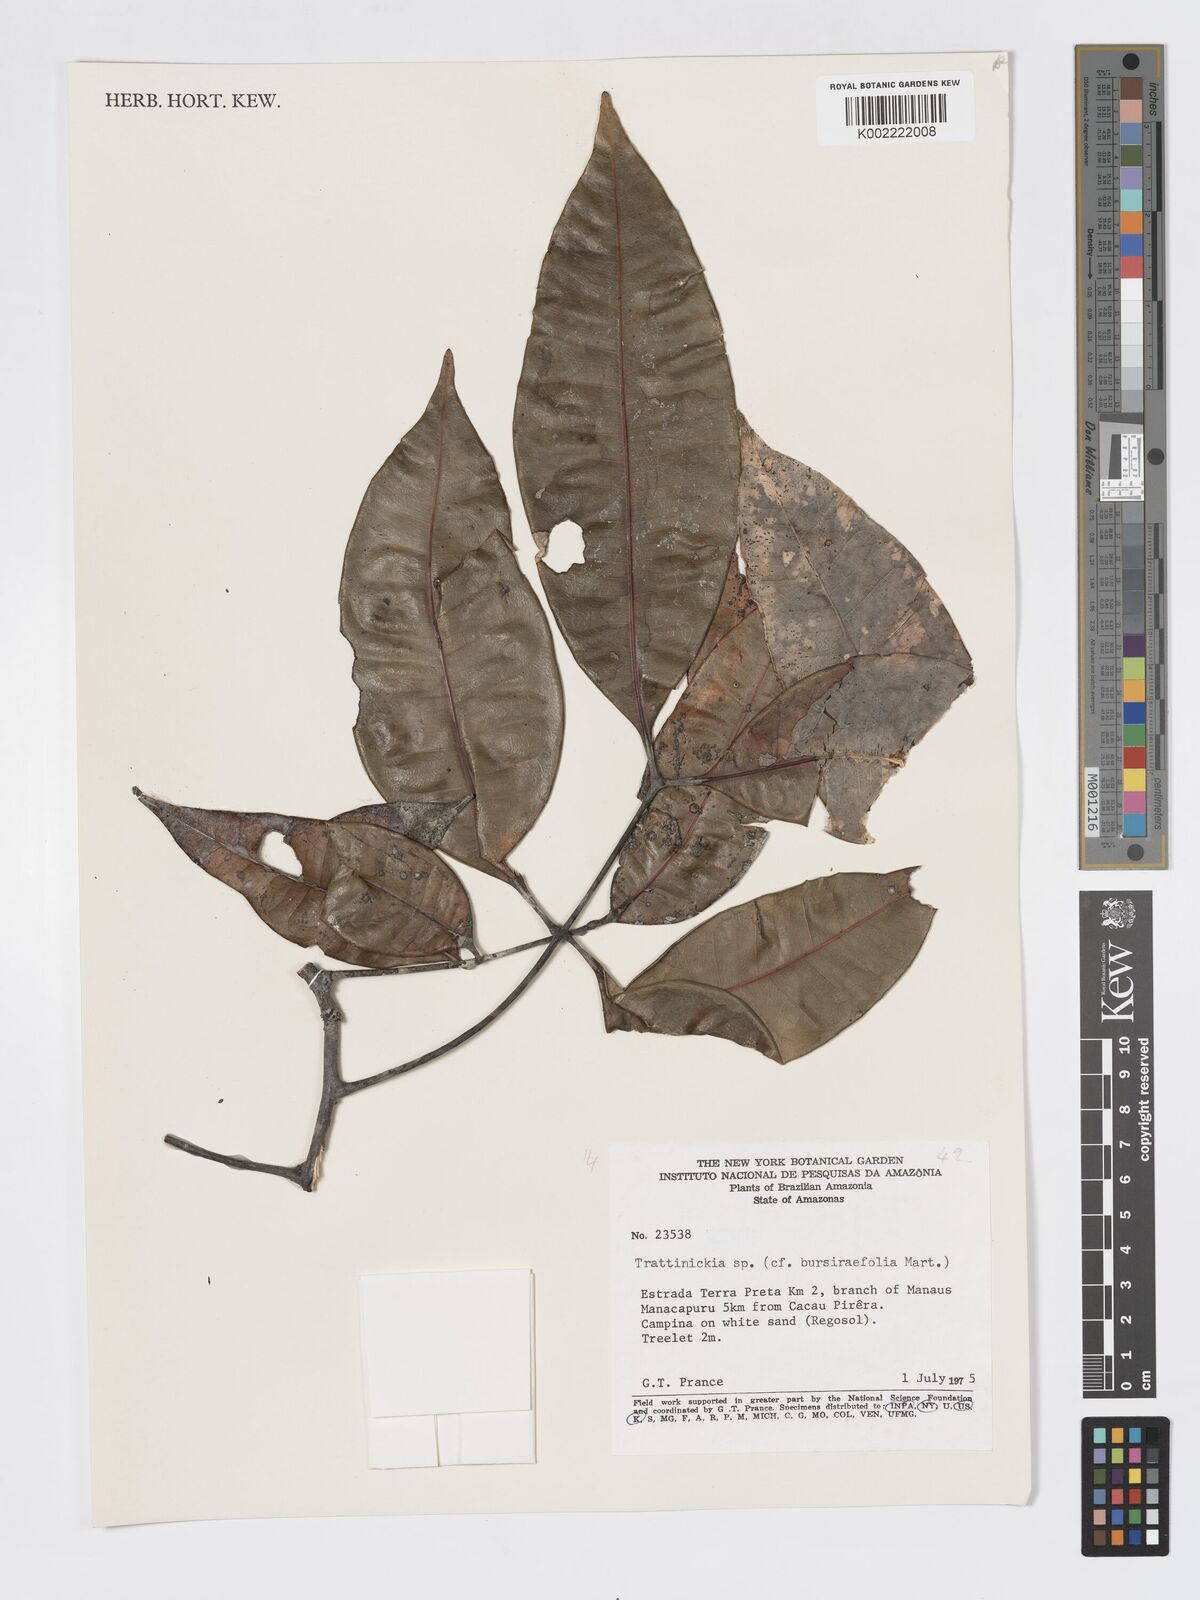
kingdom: Plantae
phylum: Tracheophyta
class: Magnoliopsida
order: Sapindales
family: Burseraceae
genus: Trattinnickia
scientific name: Trattinnickia burserifolia
